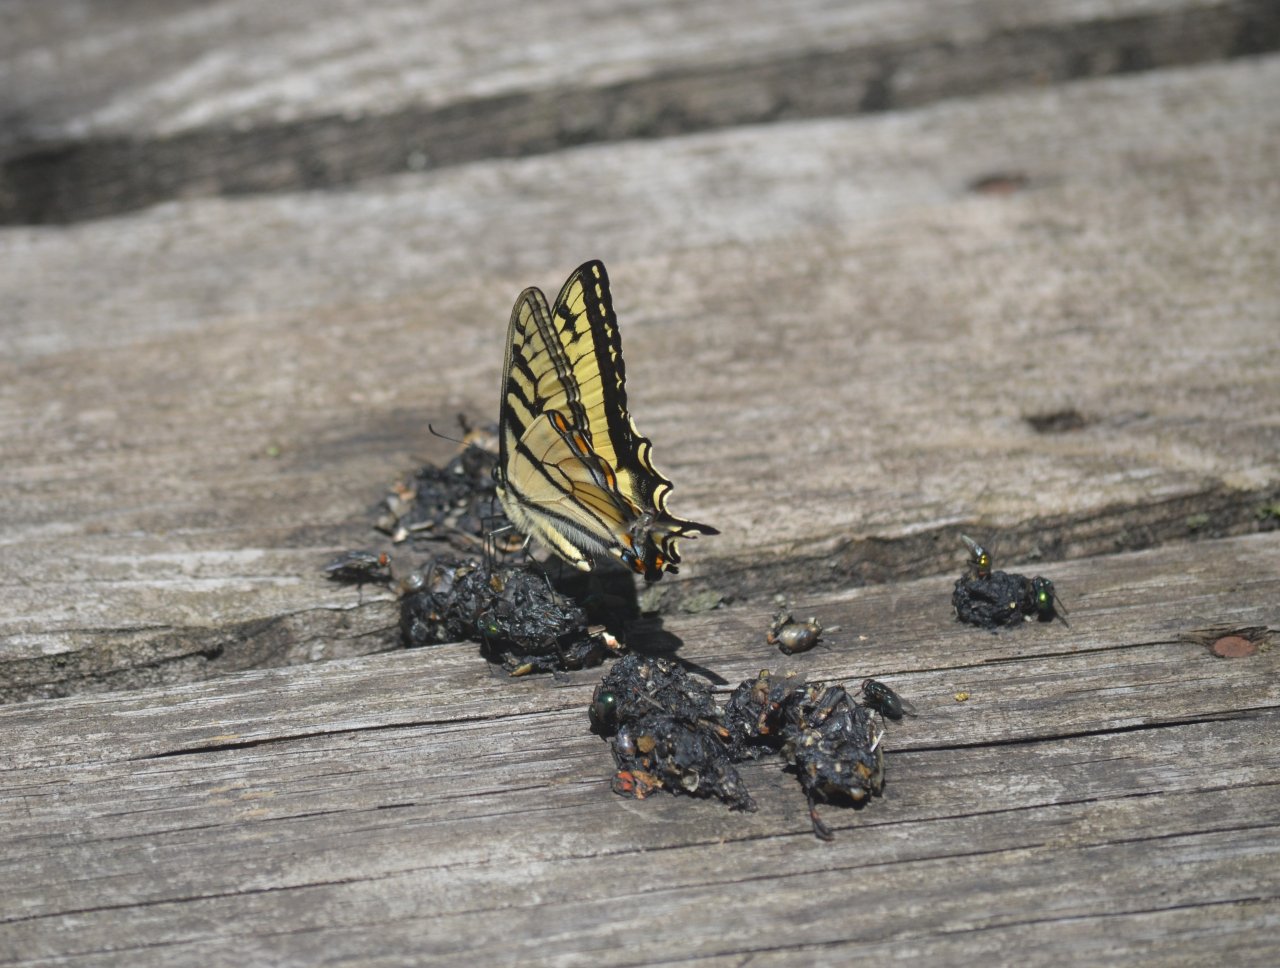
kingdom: Animalia
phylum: Arthropoda
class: Insecta
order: Lepidoptera
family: Papilionidae
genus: Pterourus
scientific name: Pterourus canadensis
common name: Canadian Tiger Swallowtail
